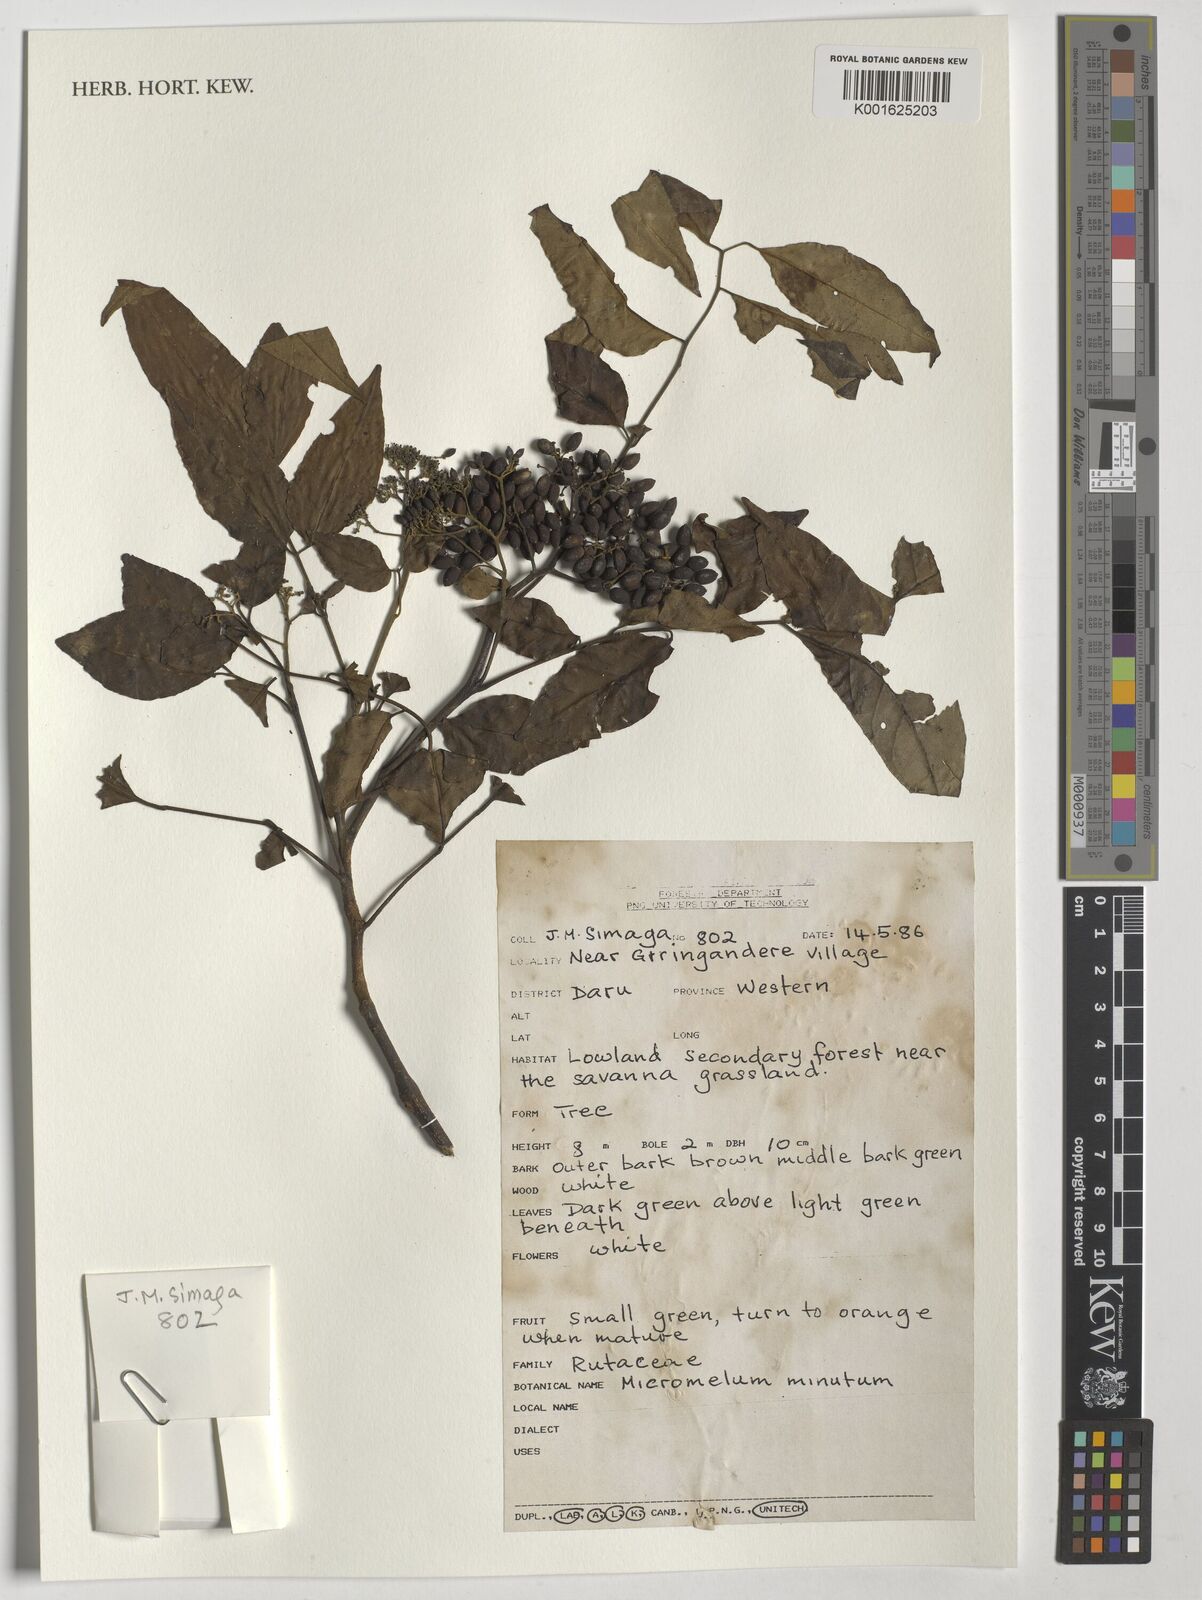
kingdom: Plantae
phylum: Tracheophyta
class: Magnoliopsida
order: Sapindales
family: Rutaceae
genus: Micromelum
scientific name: Micromelum minutum
